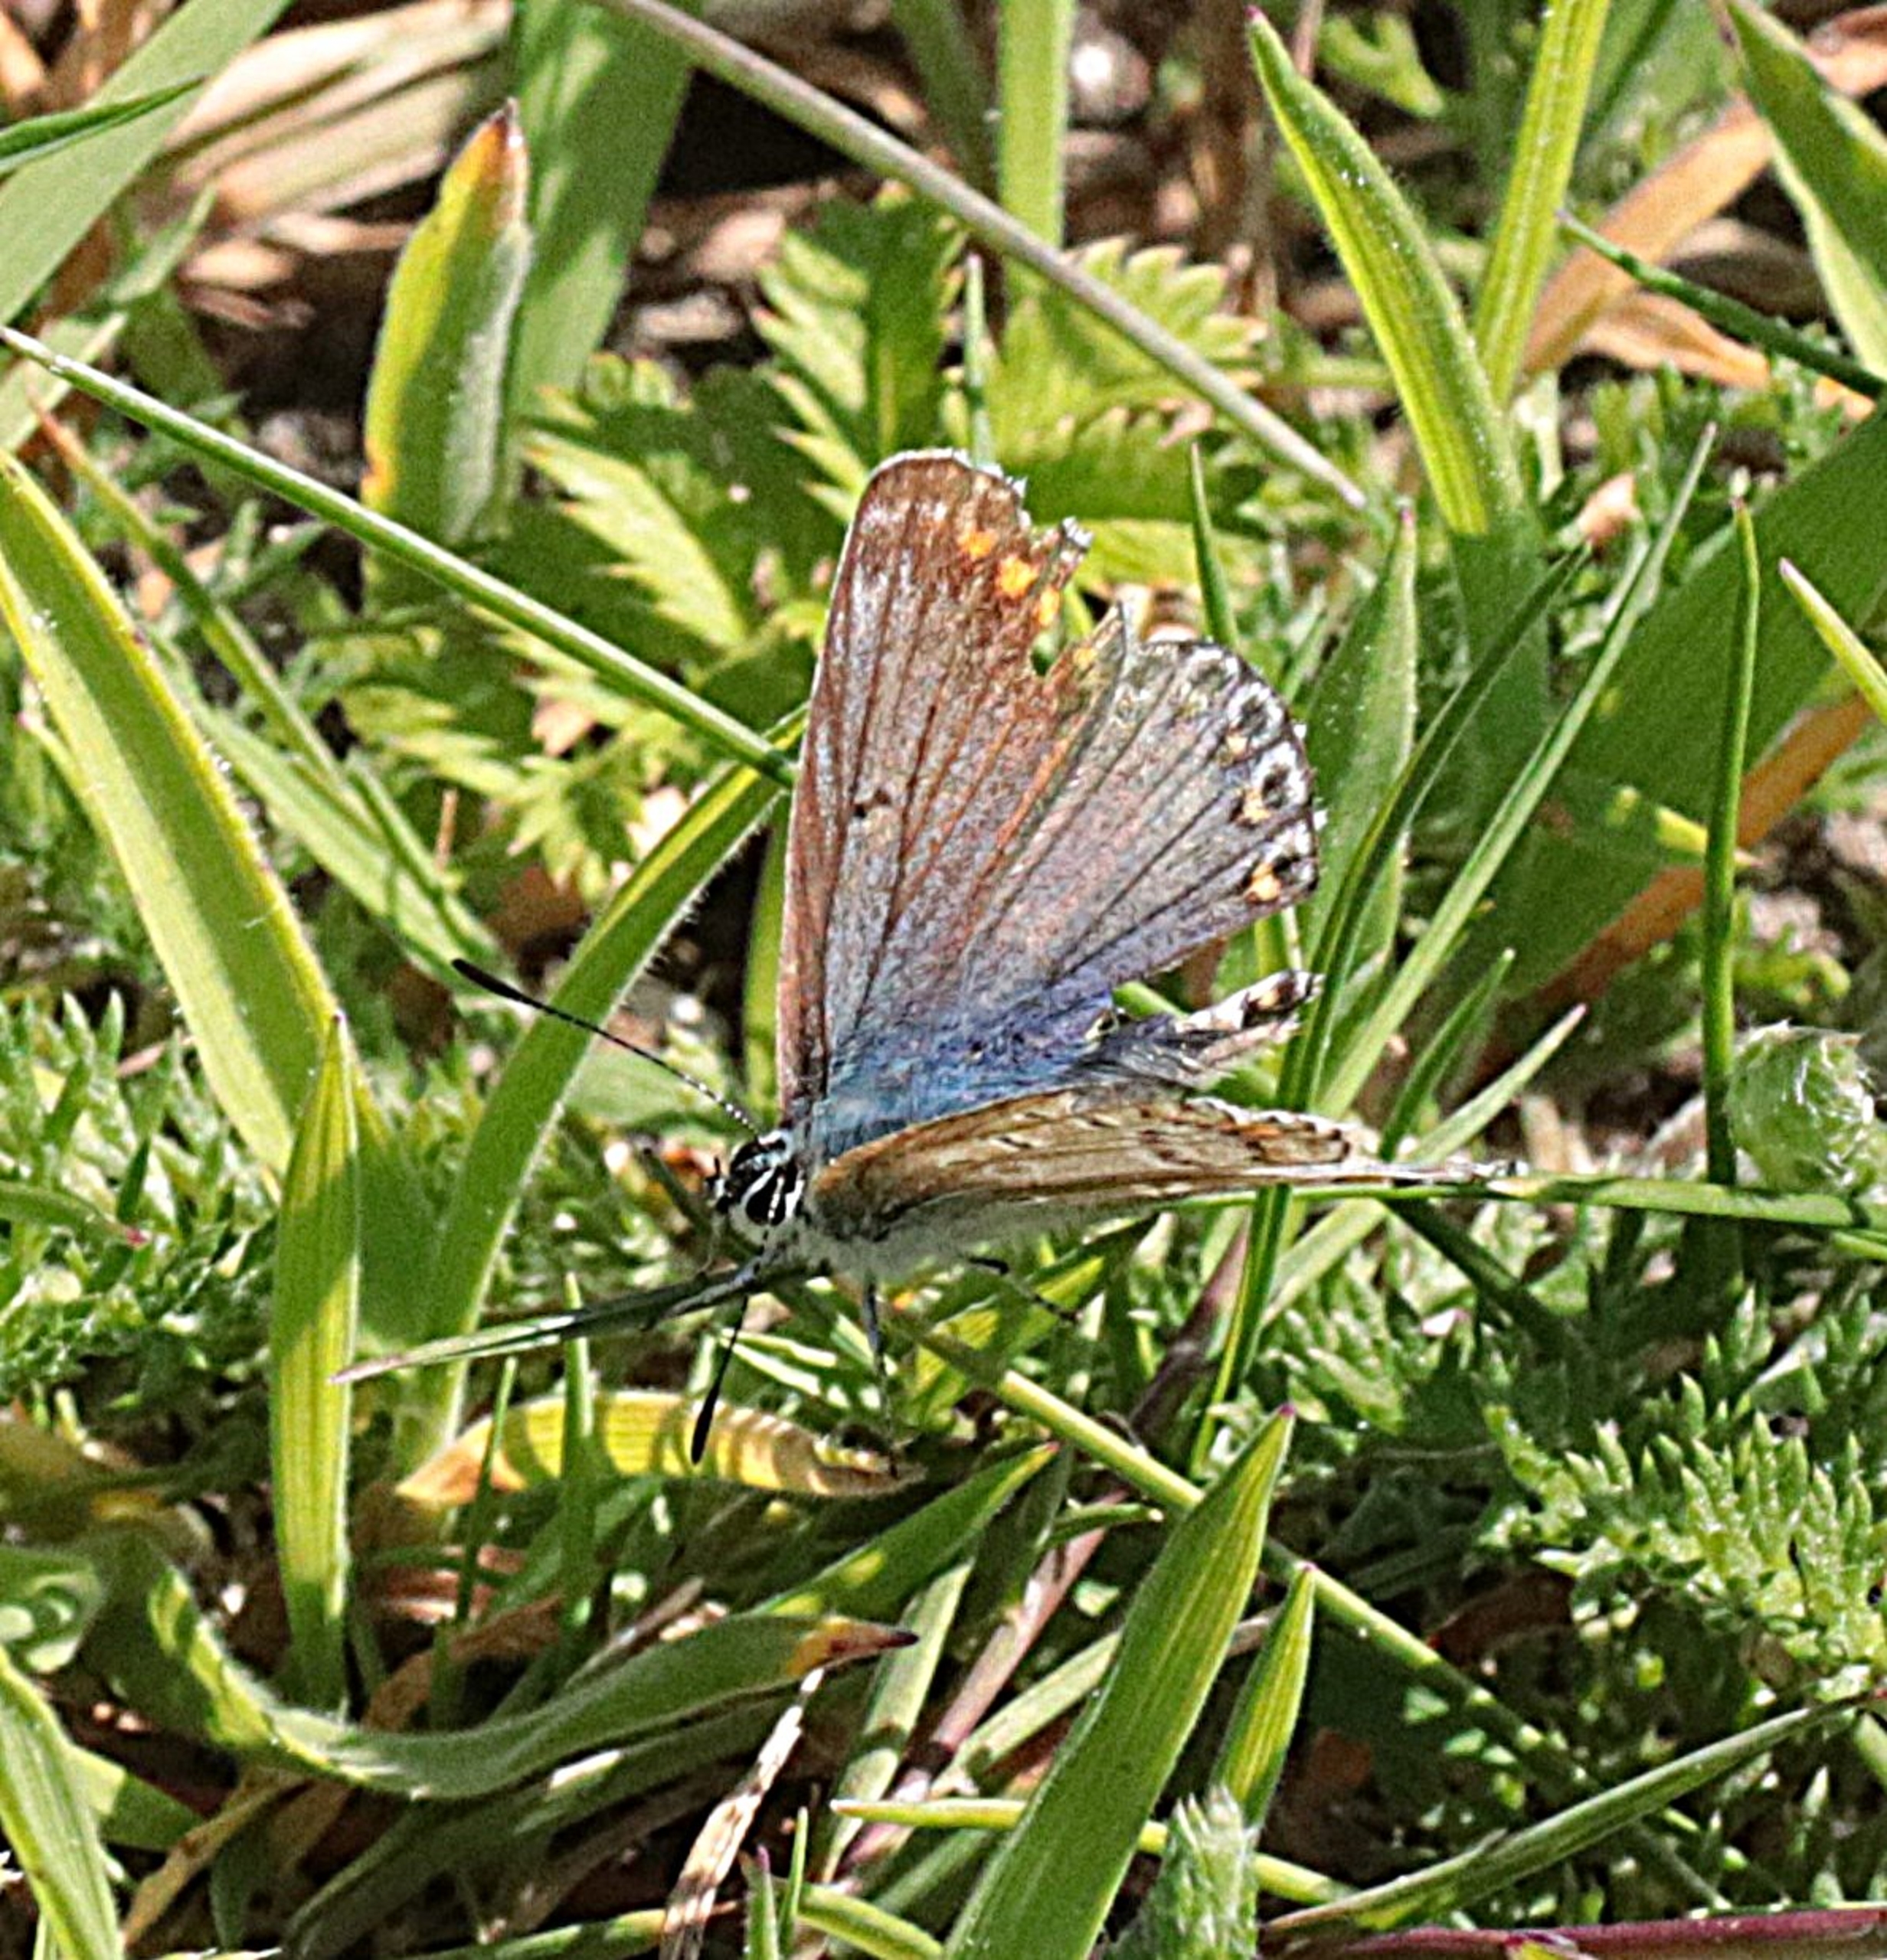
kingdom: Animalia
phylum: Arthropoda
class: Insecta
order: Lepidoptera
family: Lycaenidae
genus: Polyommatus
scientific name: Polyommatus icarus
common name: Almindelig blåfugl
